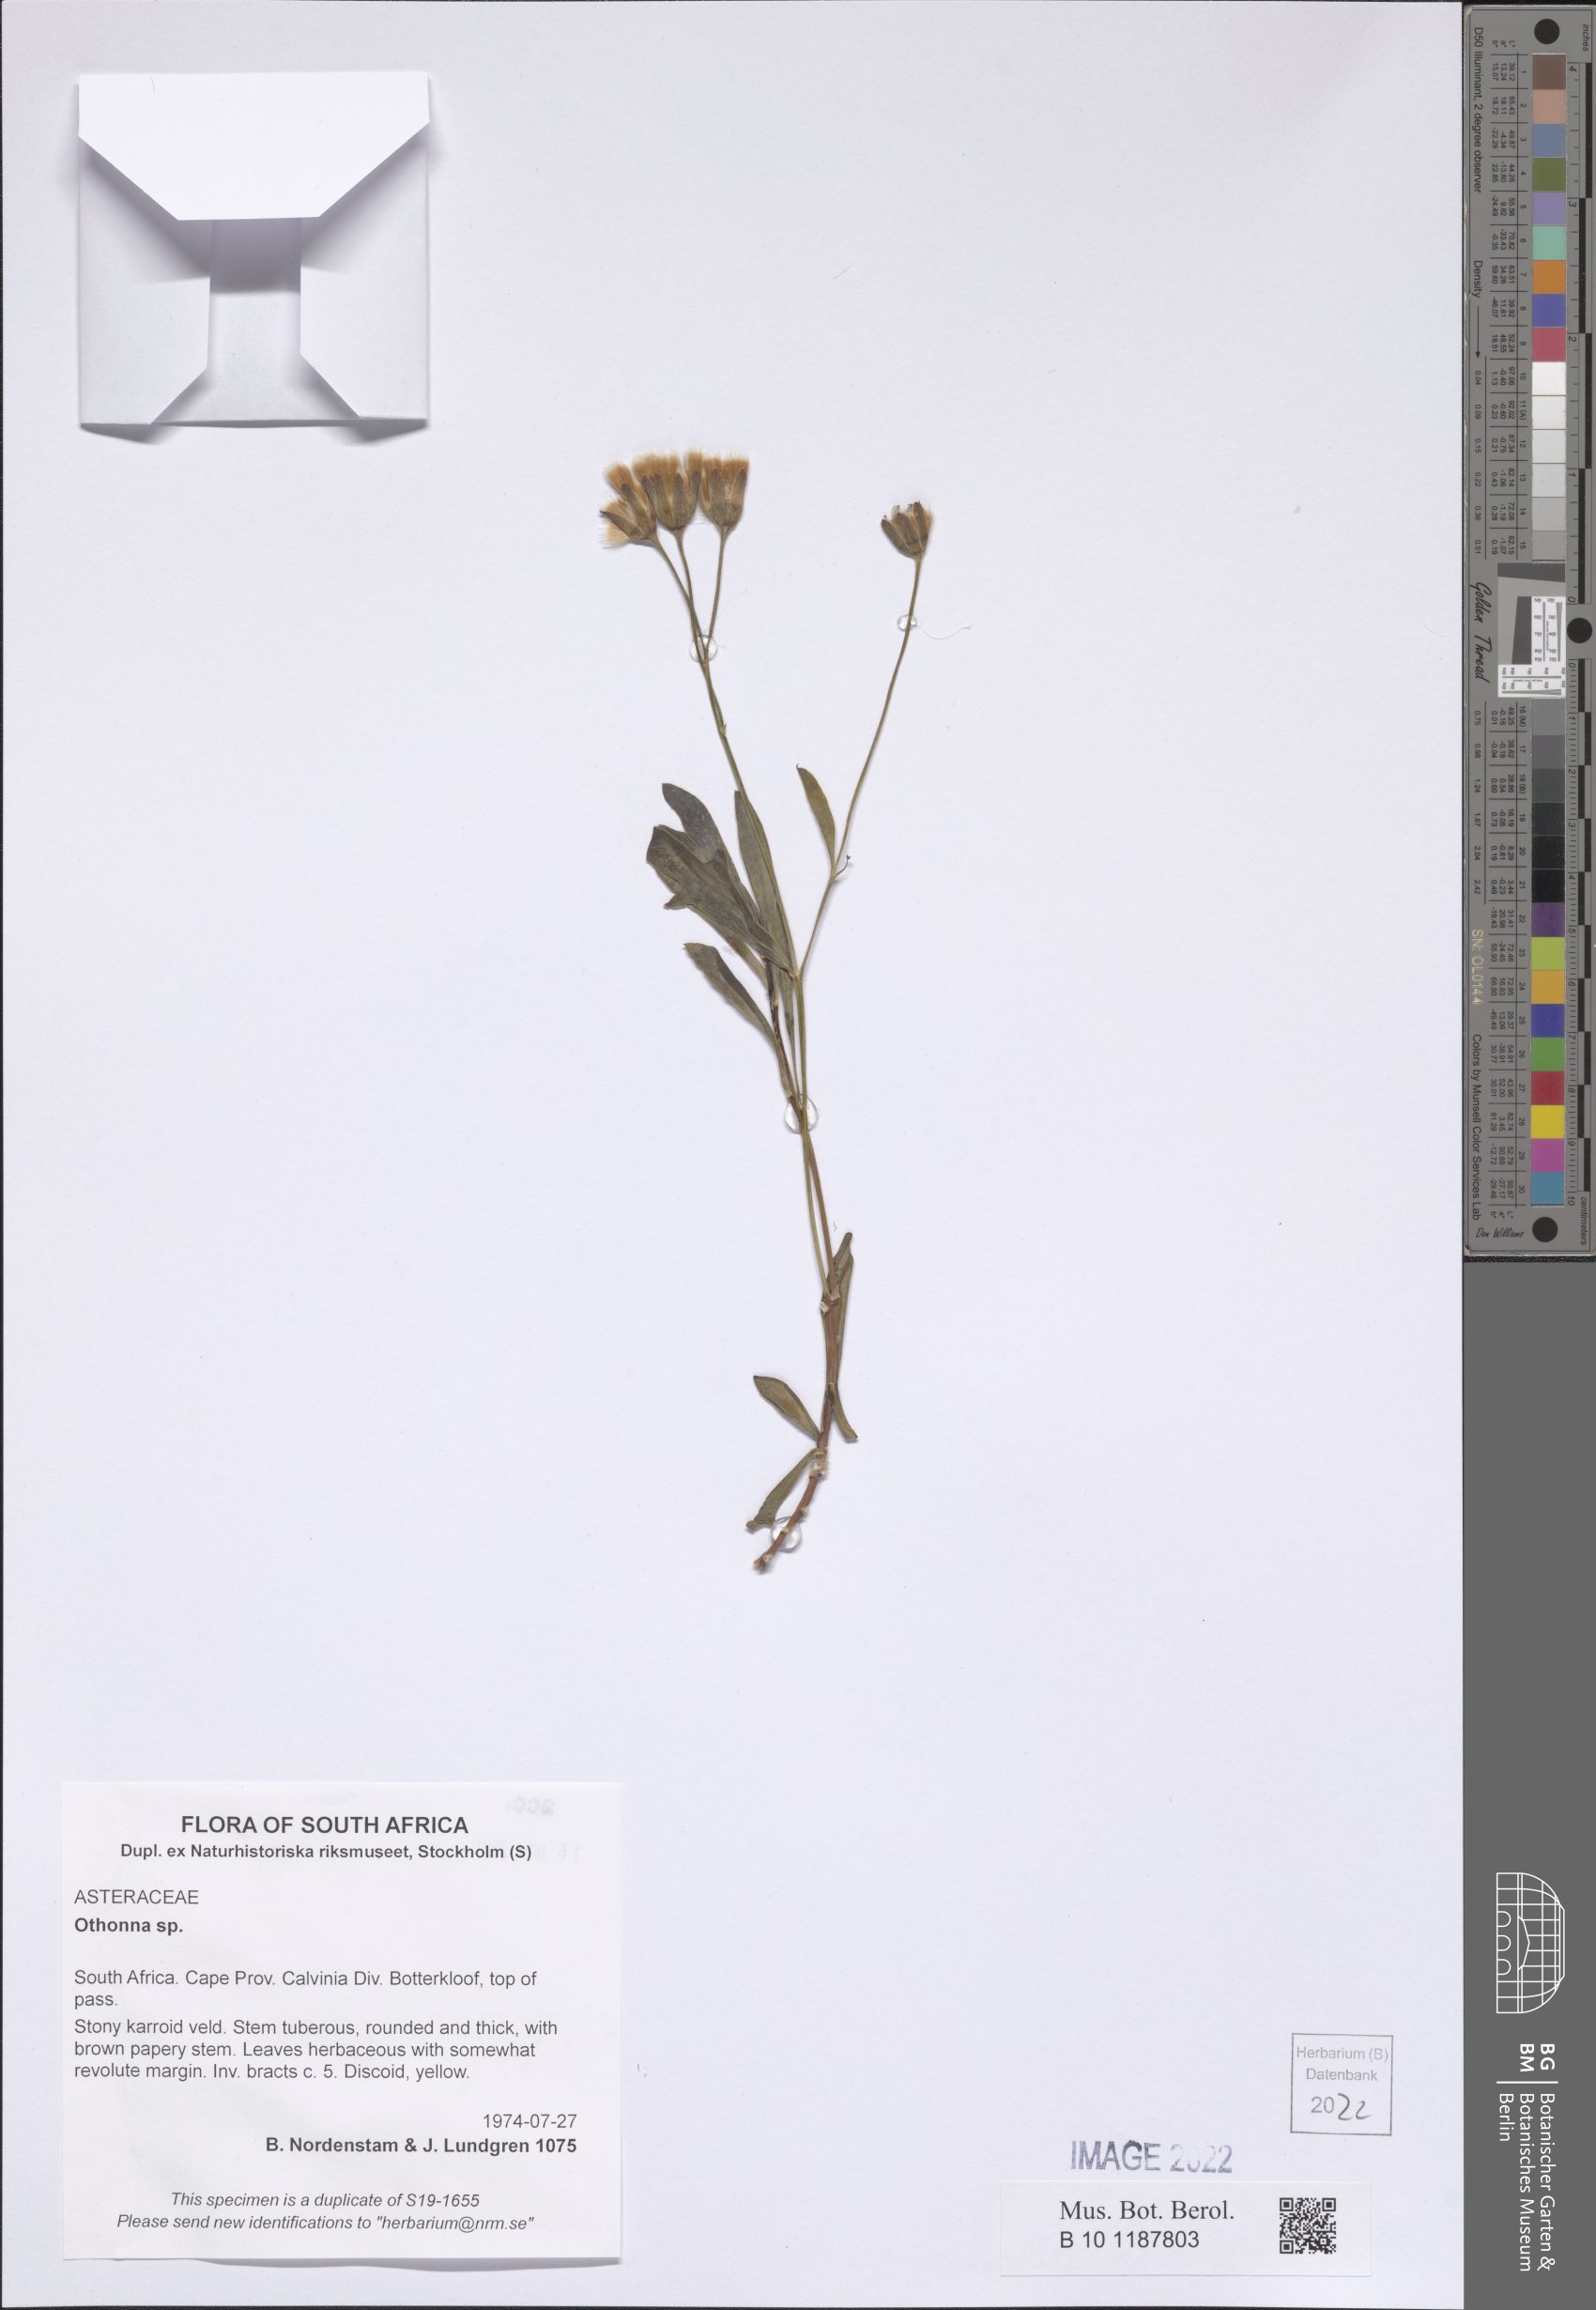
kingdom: Plantae
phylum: Tracheophyta
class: Magnoliopsida
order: Asterales
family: Asteraceae
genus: Othonna
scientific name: Othonna
